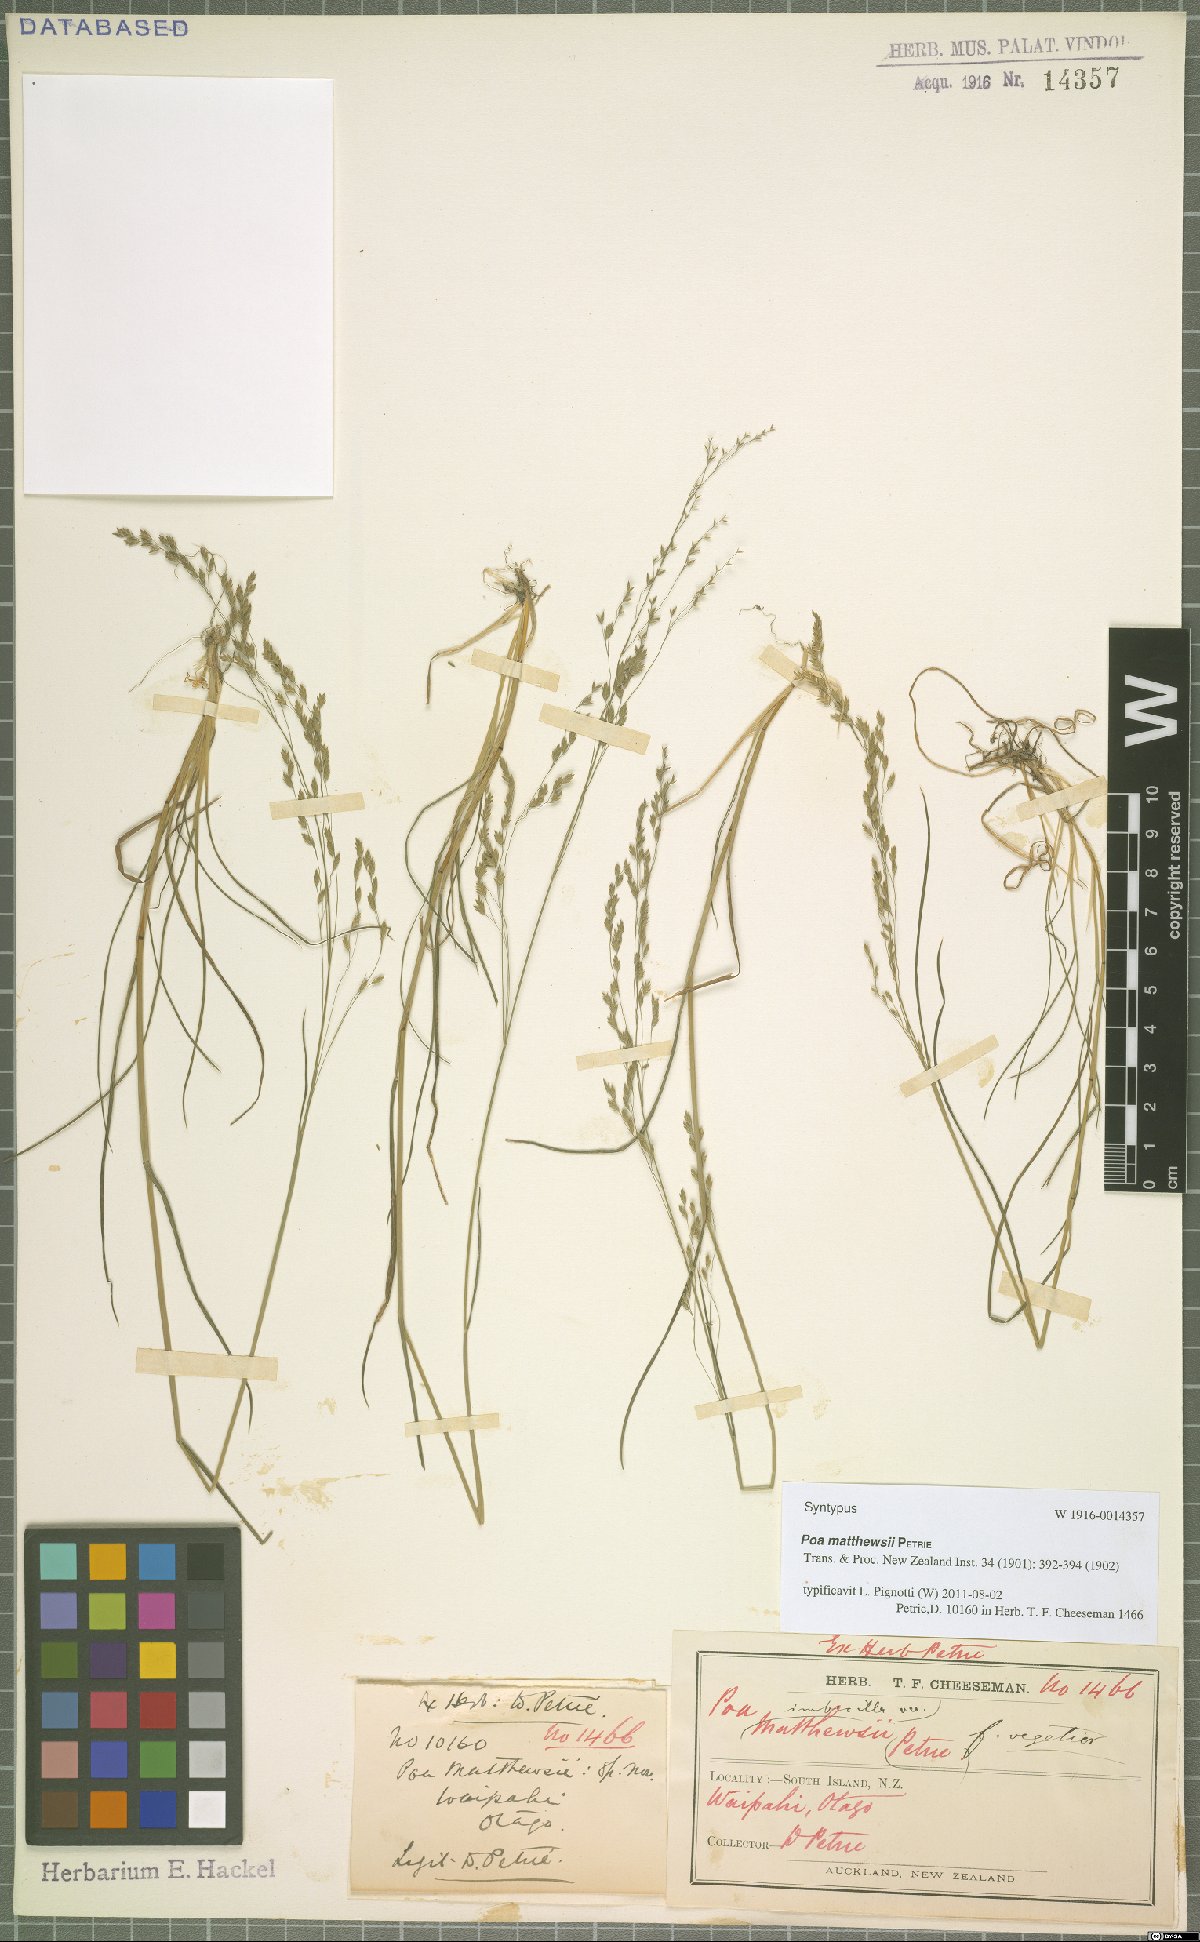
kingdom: Plantae
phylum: Tracheophyta
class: Liliopsida
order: Poales
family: Poaceae
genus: Poa
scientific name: Poa matthewsii
